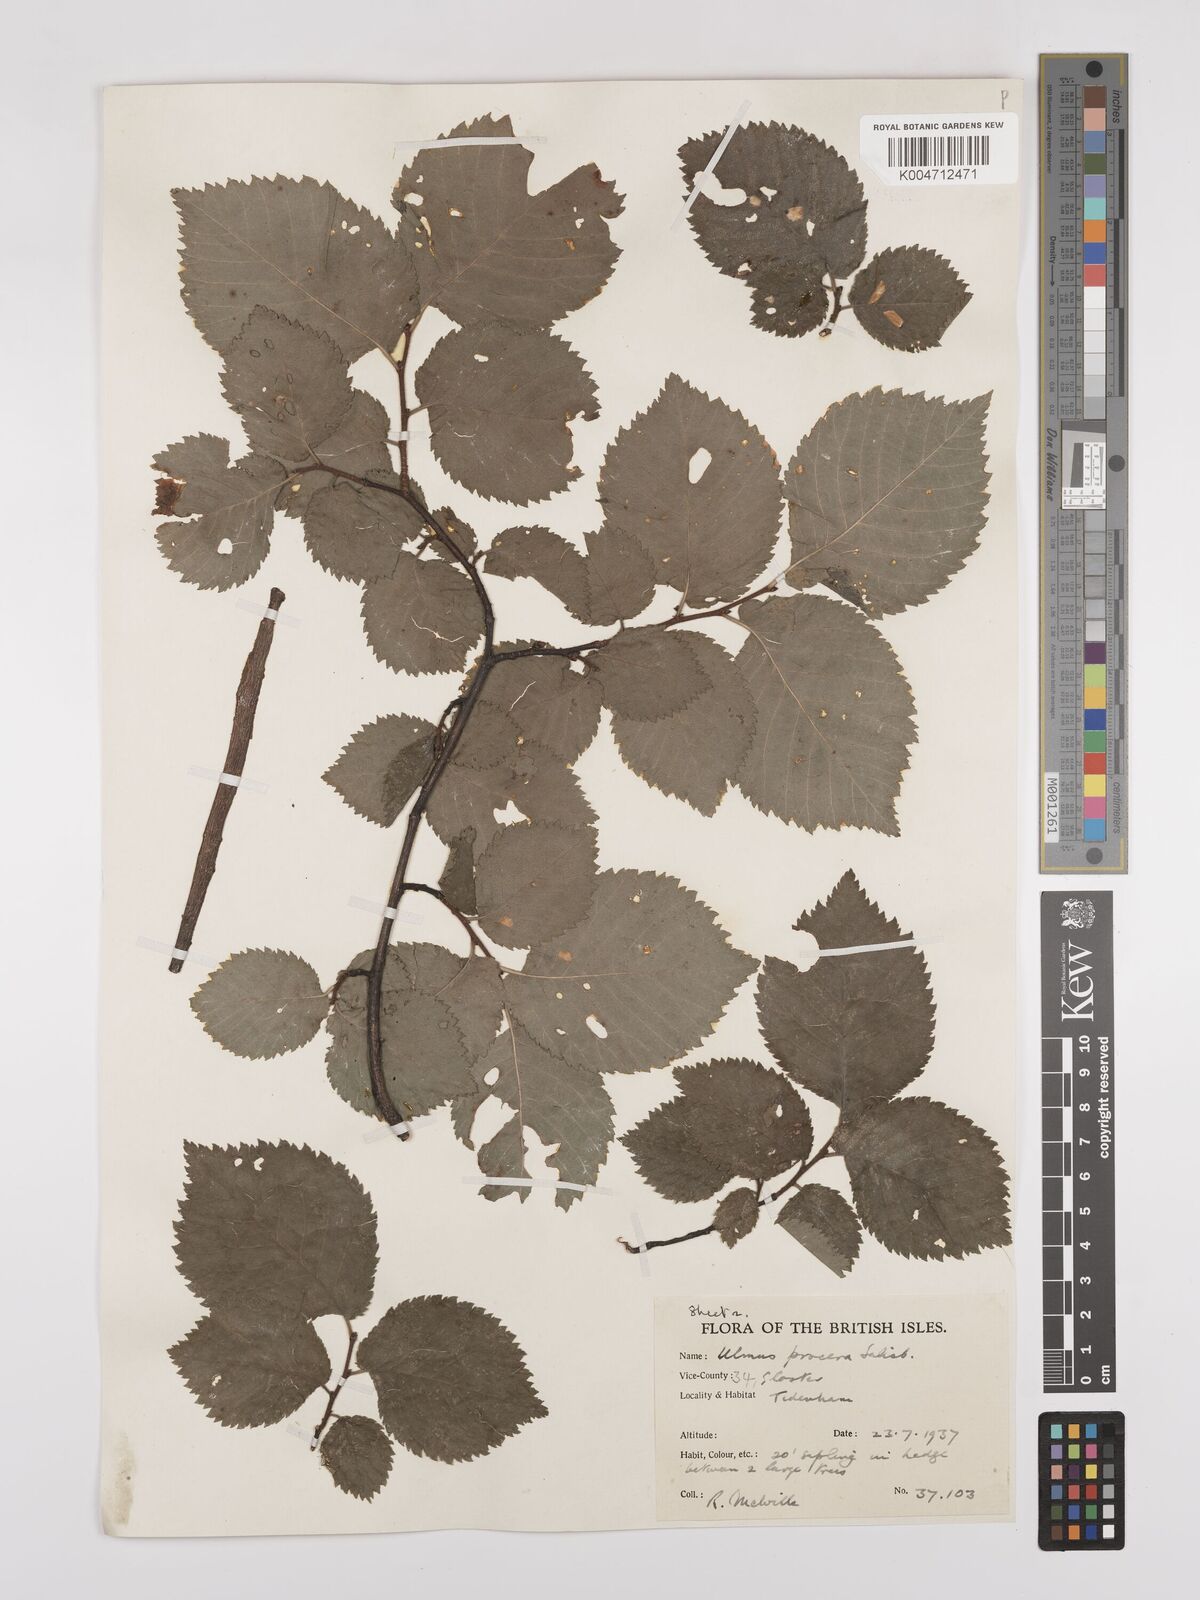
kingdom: Plantae
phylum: Tracheophyta
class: Magnoliopsida
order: Rosales
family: Ulmaceae
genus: Ulmus
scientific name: Ulmus minor
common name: Small-leaved elm
